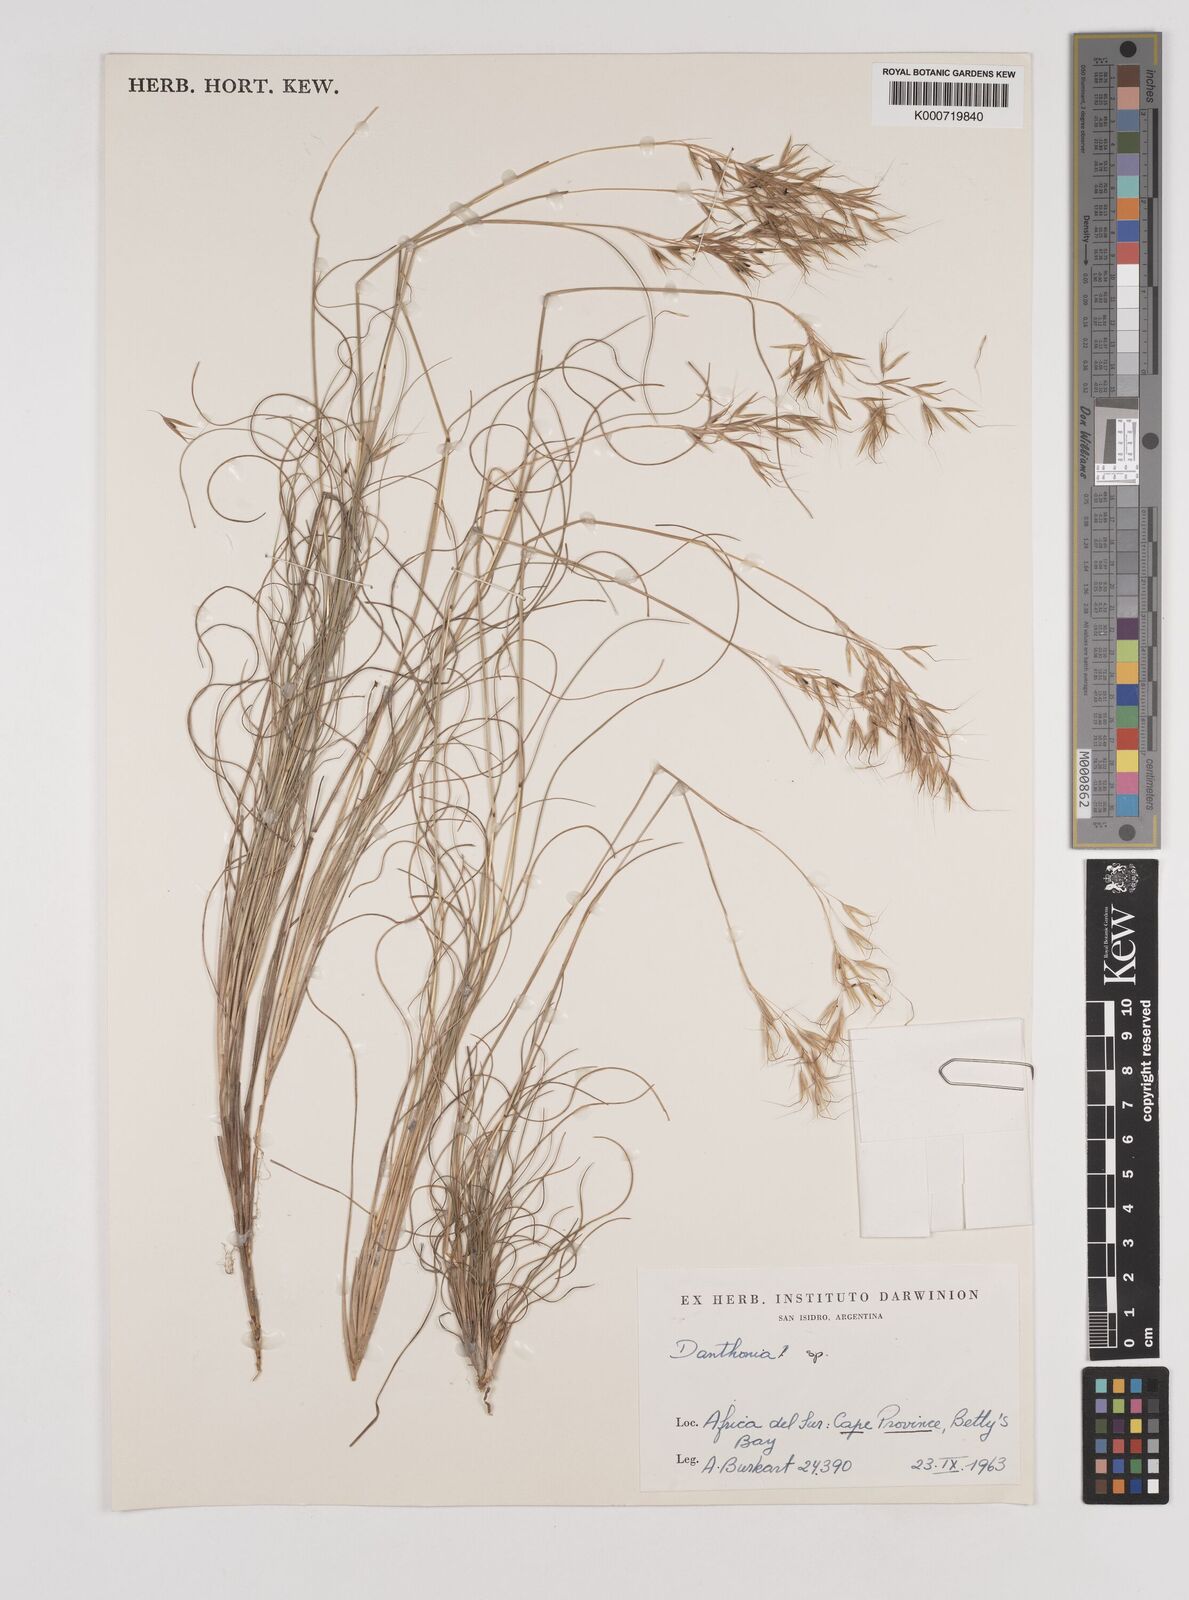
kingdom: Plantae
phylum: Tracheophyta
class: Liliopsida
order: Poales
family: Poaceae
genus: Pentaschistis
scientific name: Pentaschistis
